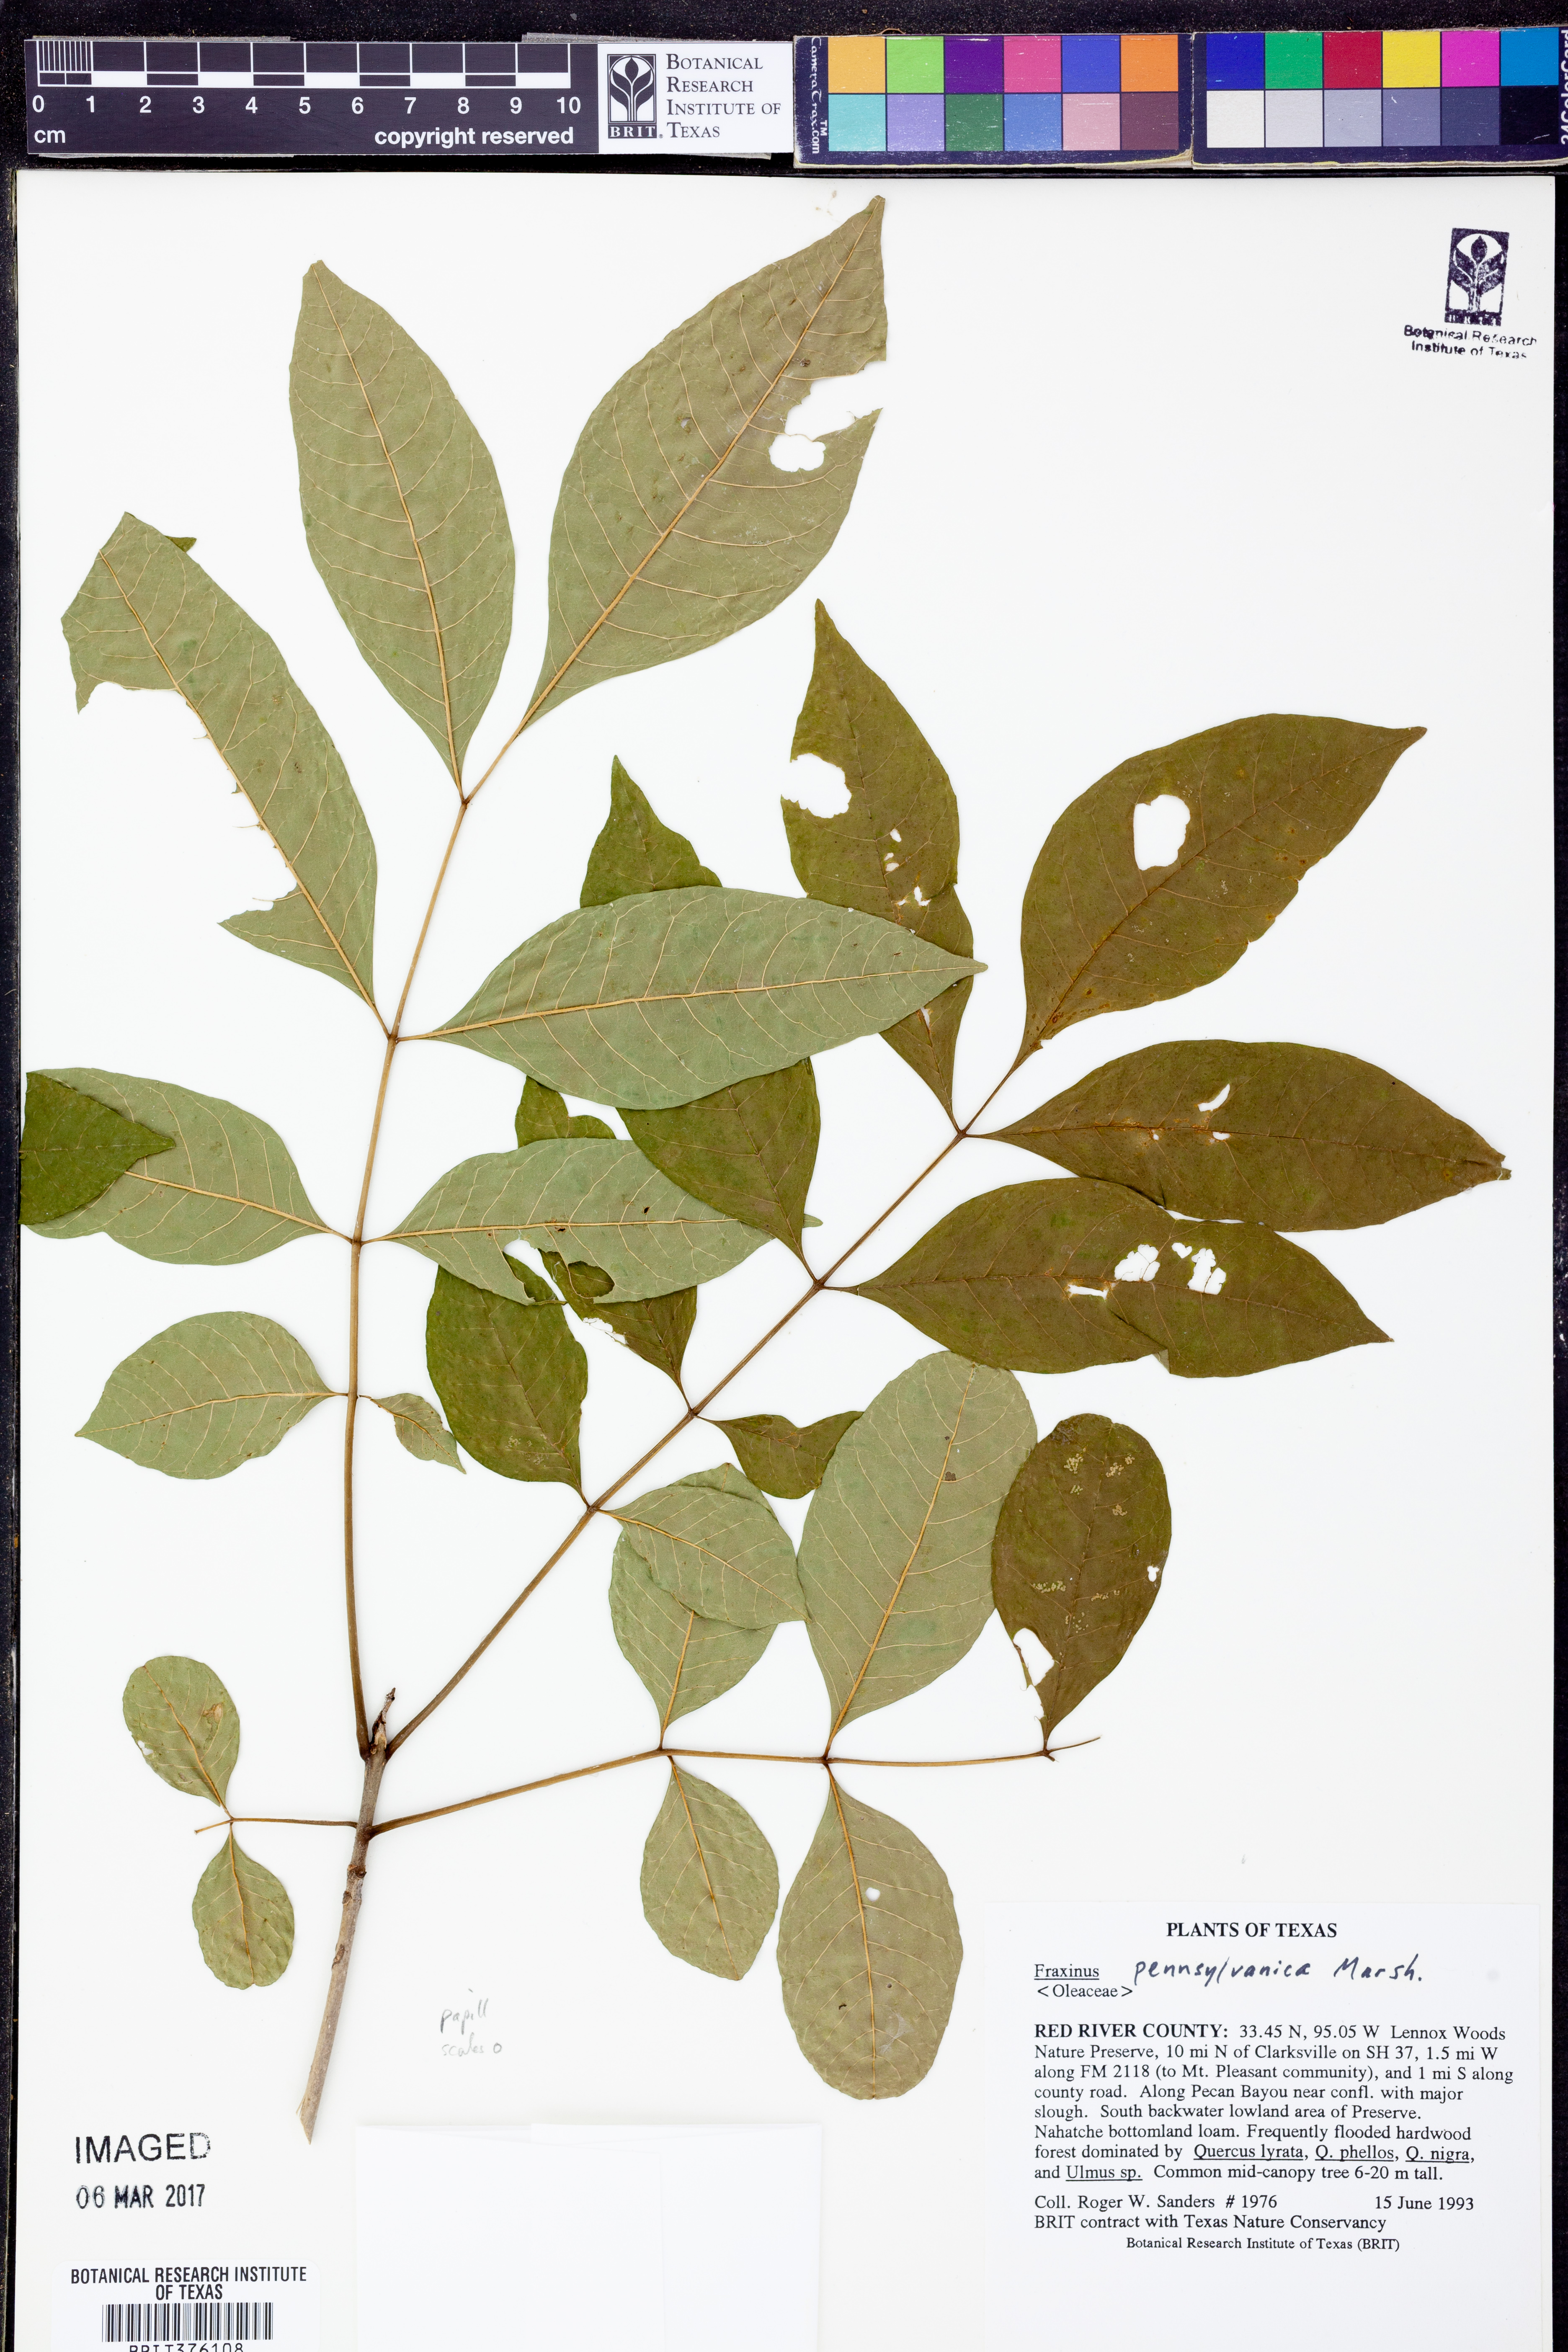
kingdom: Plantae
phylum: Tracheophyta
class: Magnoliopsida
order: Lamiales
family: Oleaceae
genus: Fraxinus
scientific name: Fraxinus pennsylvanica
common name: Green ash
